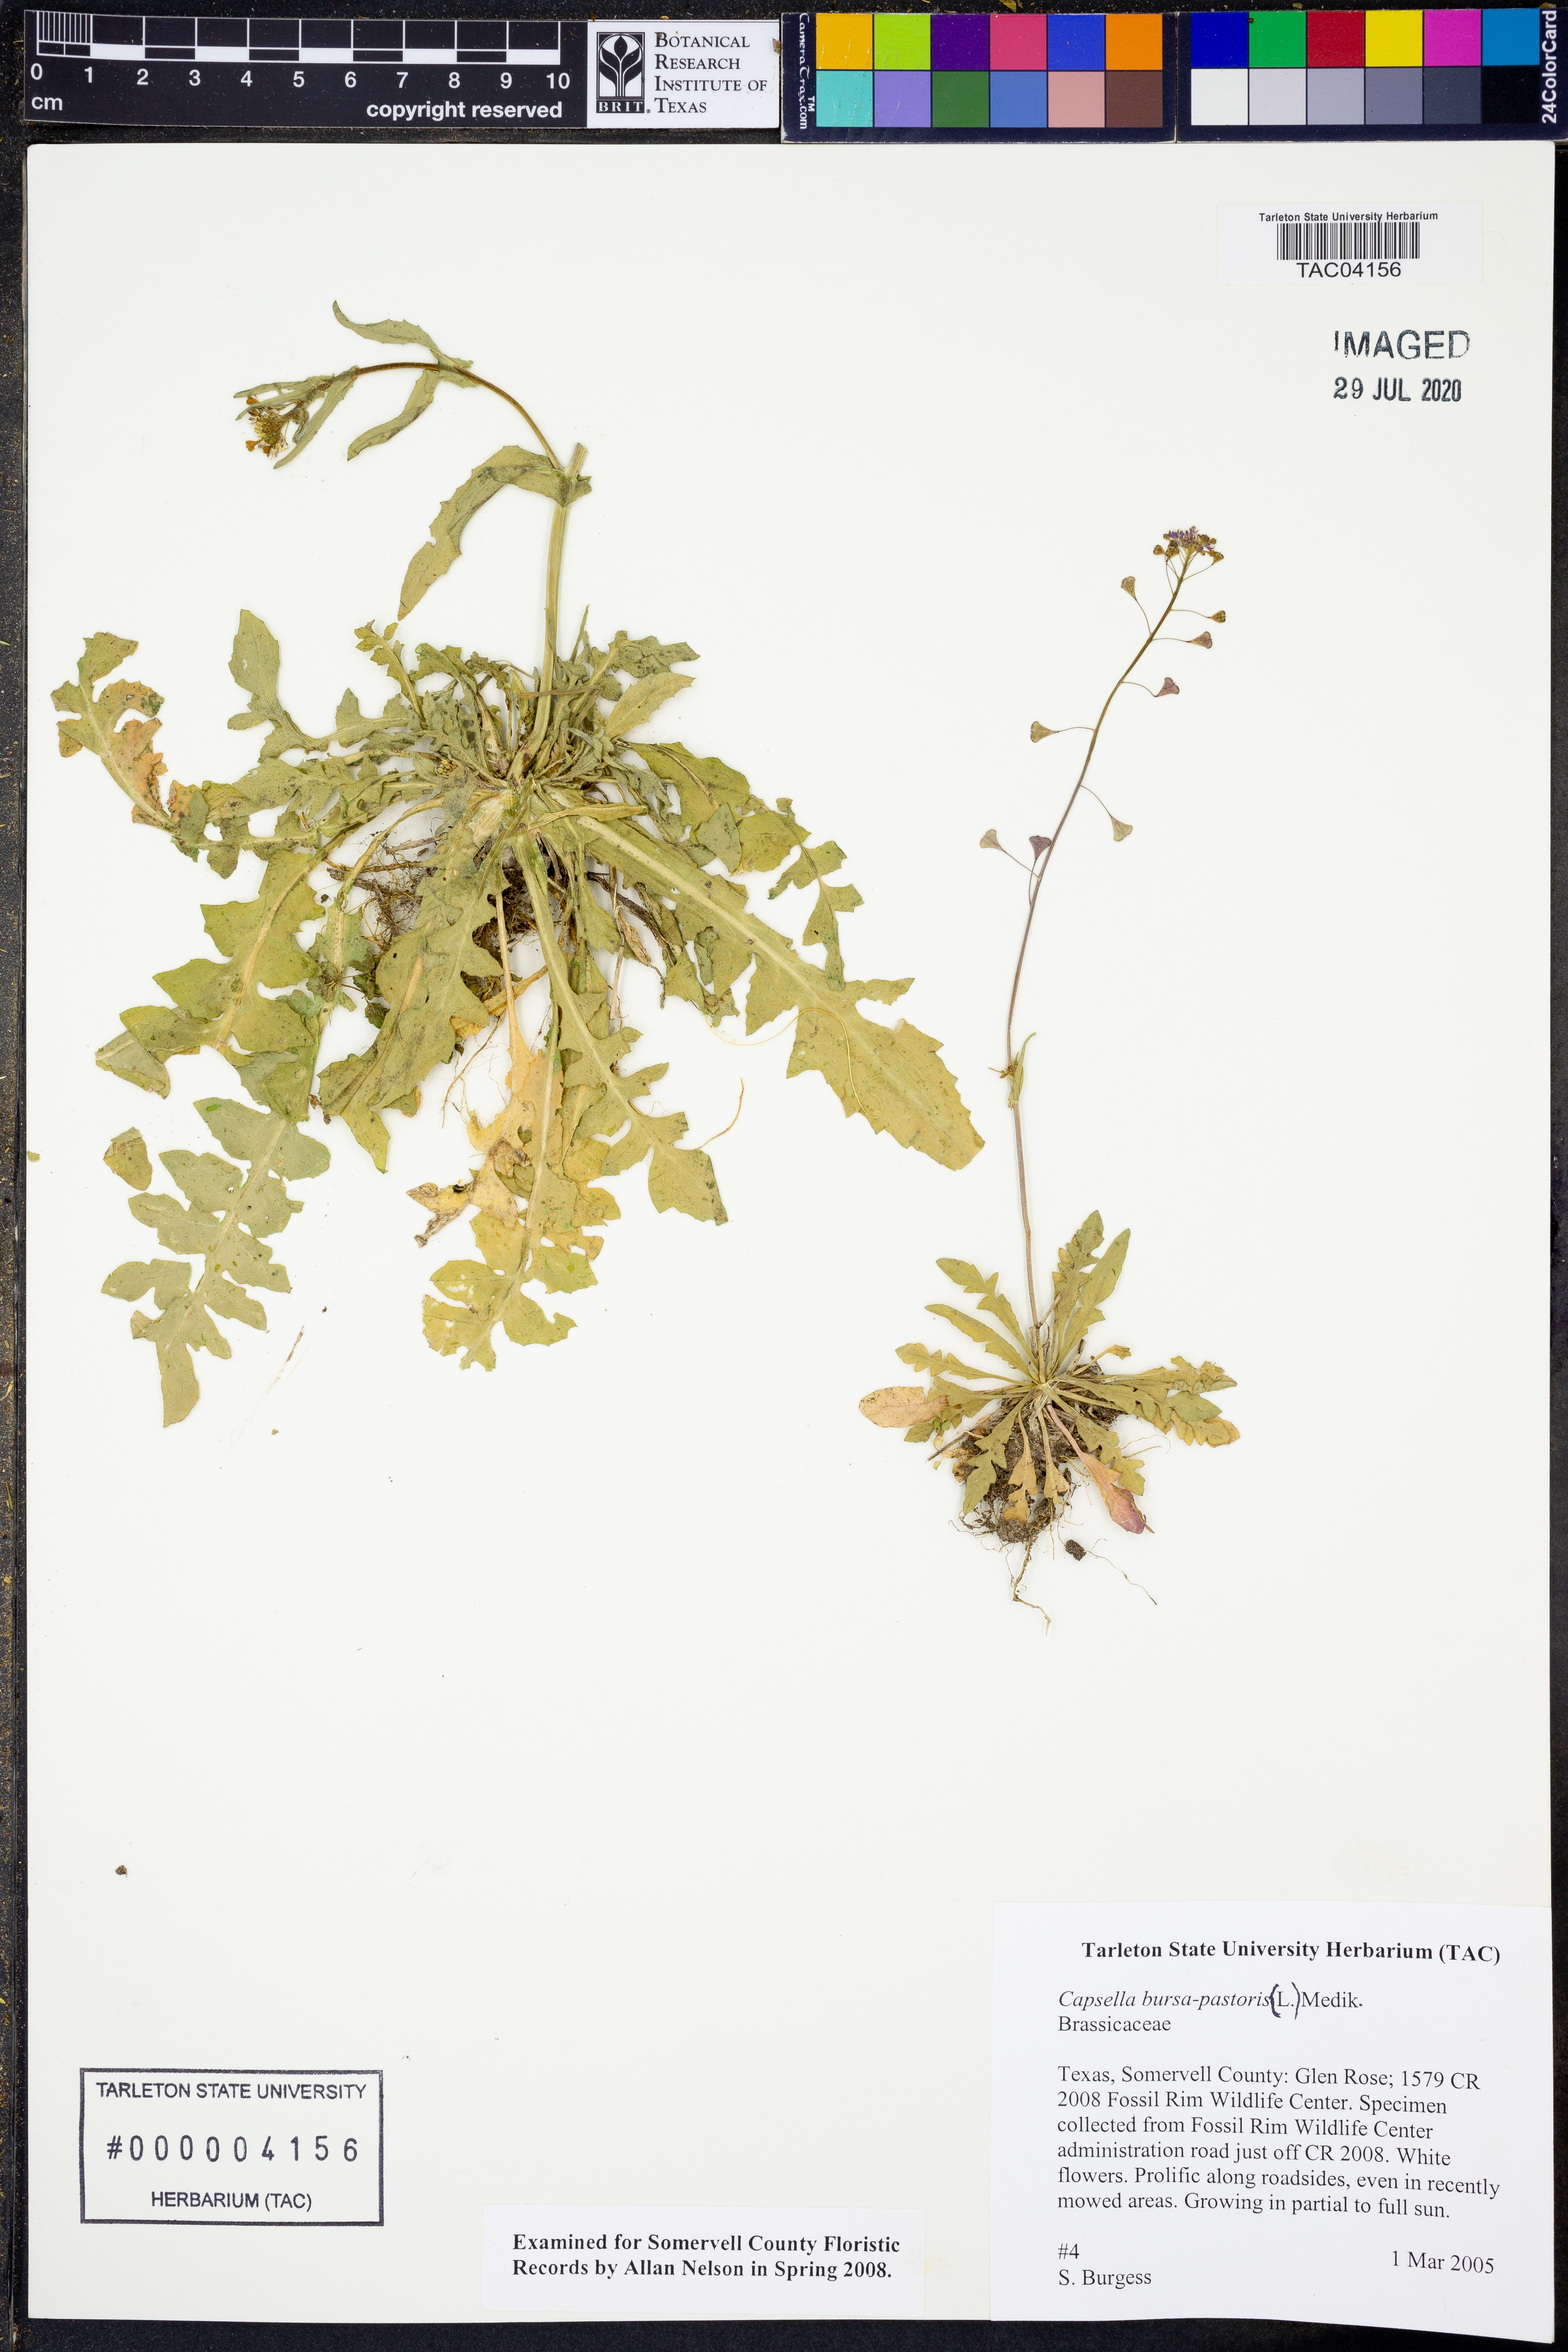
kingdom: Plantae
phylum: Tracheophyta
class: Magnoliopsida
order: Brassicales
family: Brassicaceae
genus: Capsella
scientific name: Capsella bursa-pastoris
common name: Shepherd's purse
